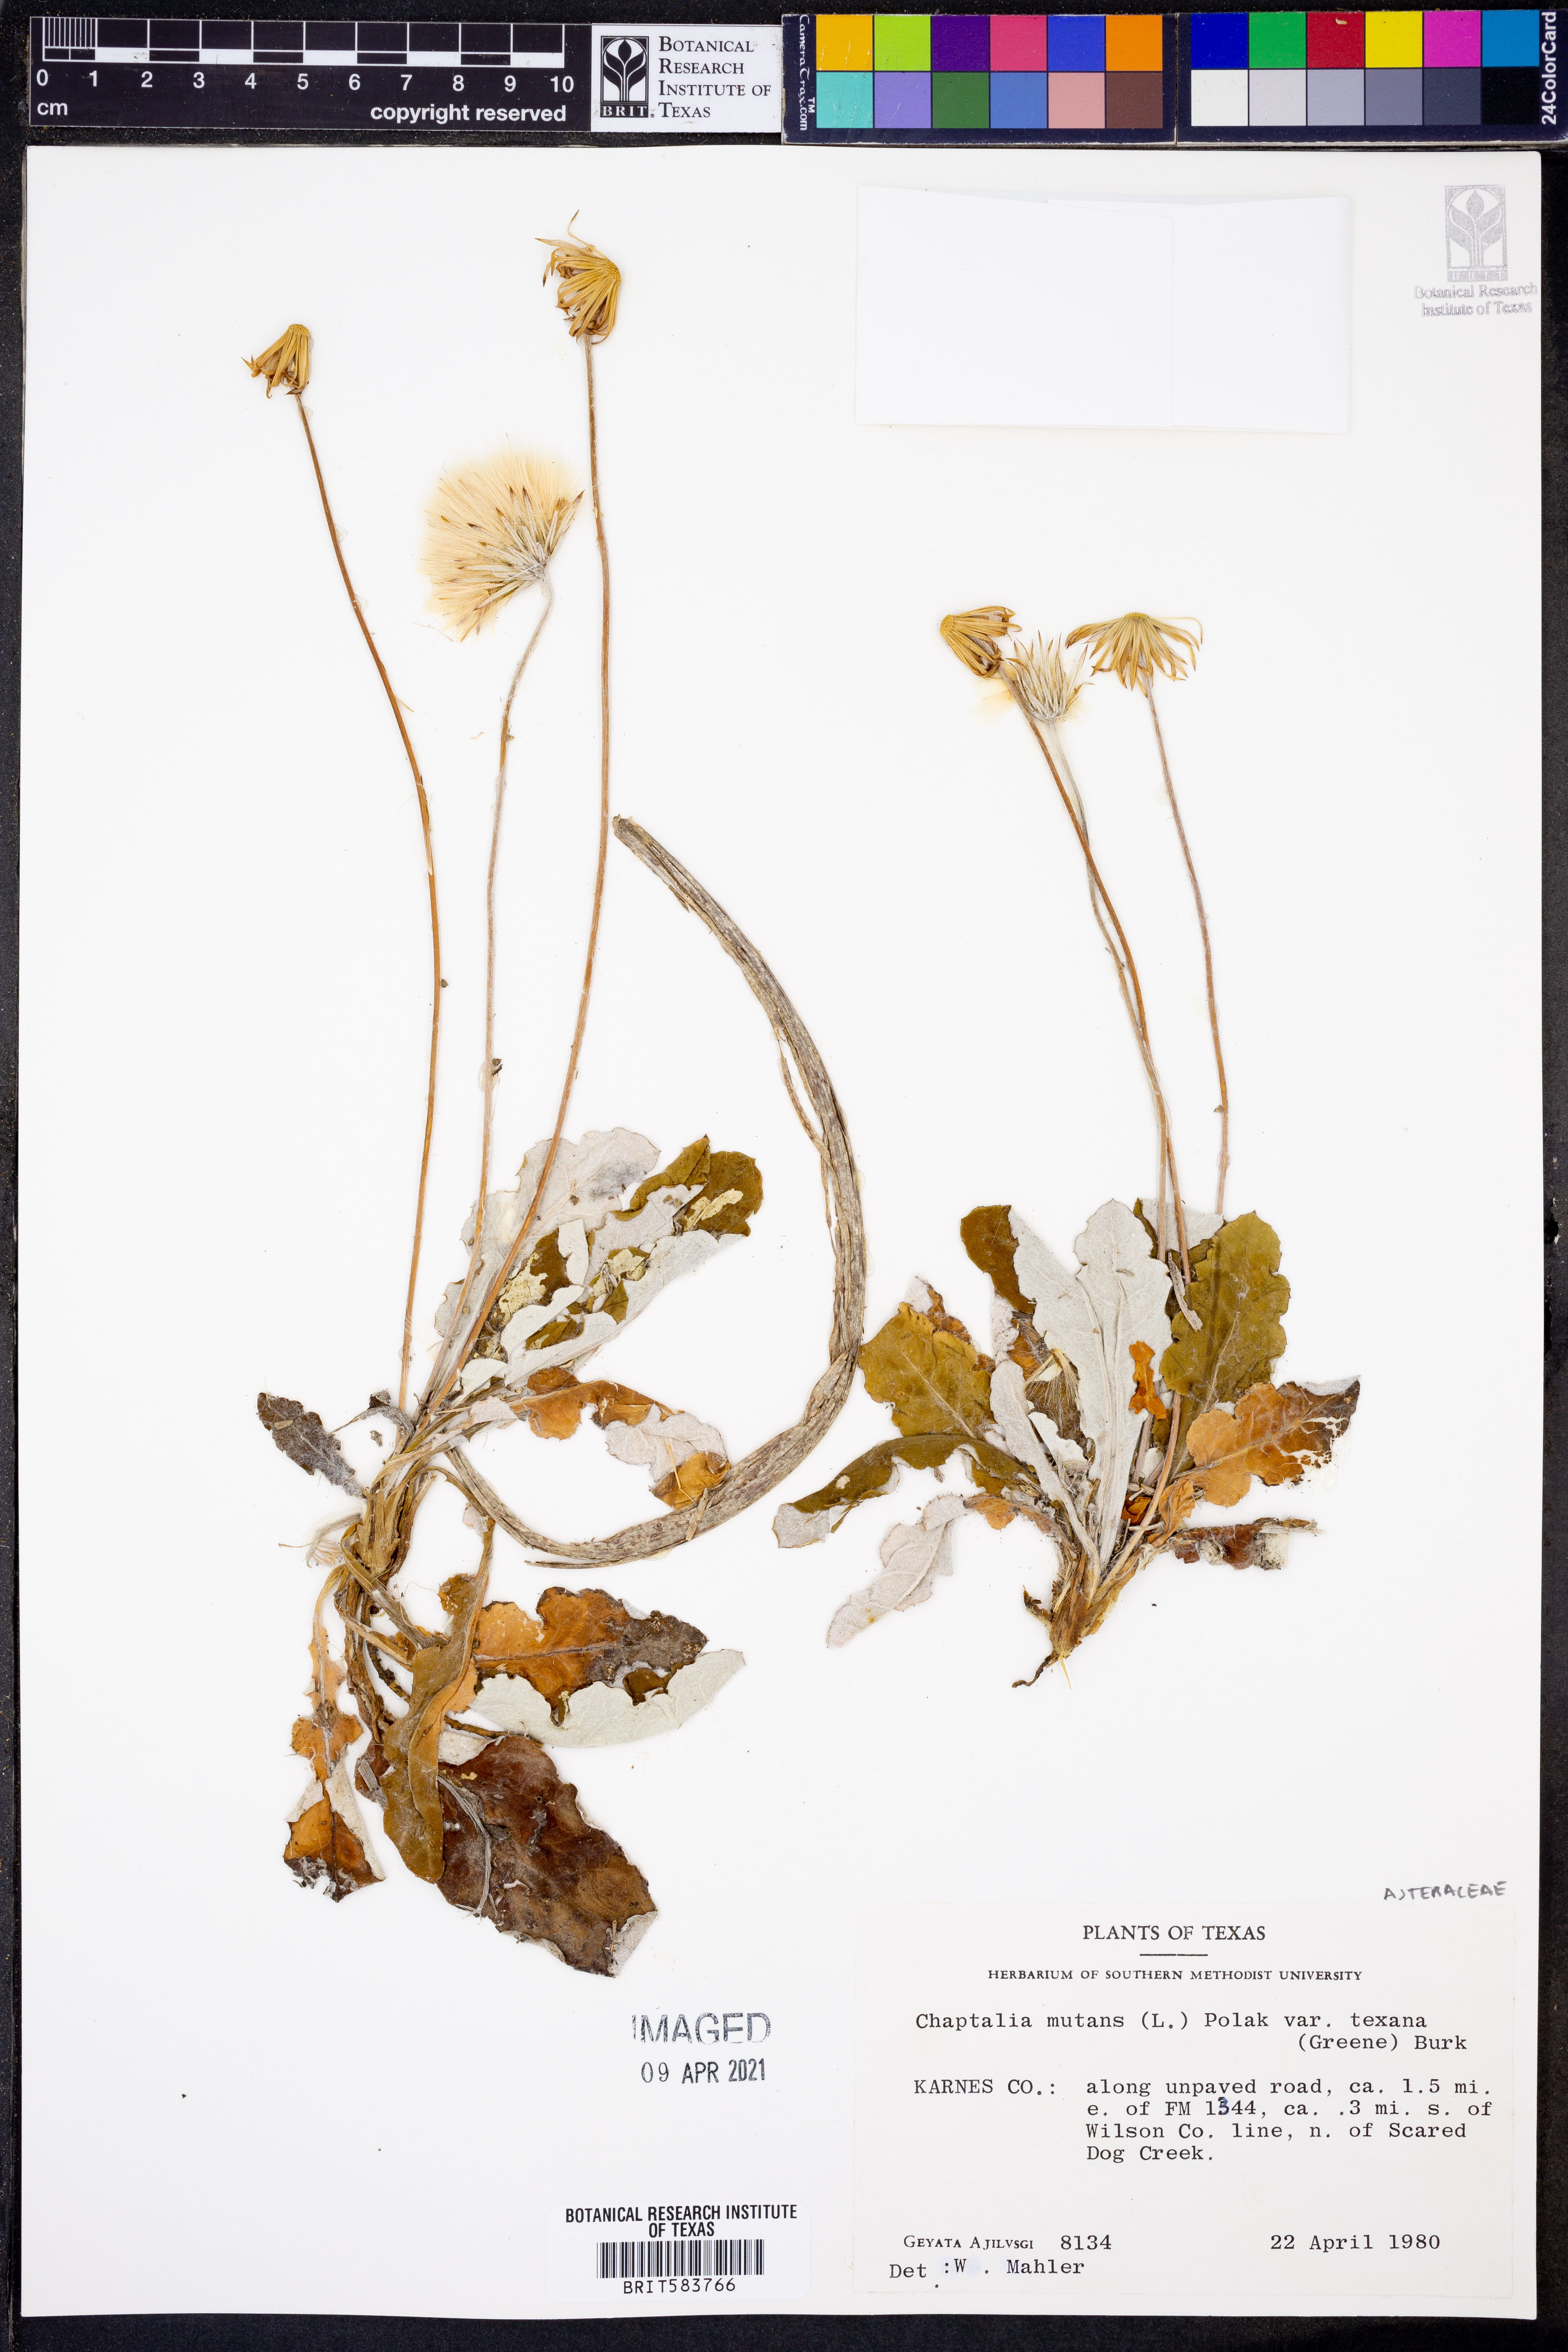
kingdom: Plantae
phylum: Tracheophyta
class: Magnoliopsida
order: Asterales
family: Asteraceae
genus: Chaptalia
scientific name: Chaptalia nutans
